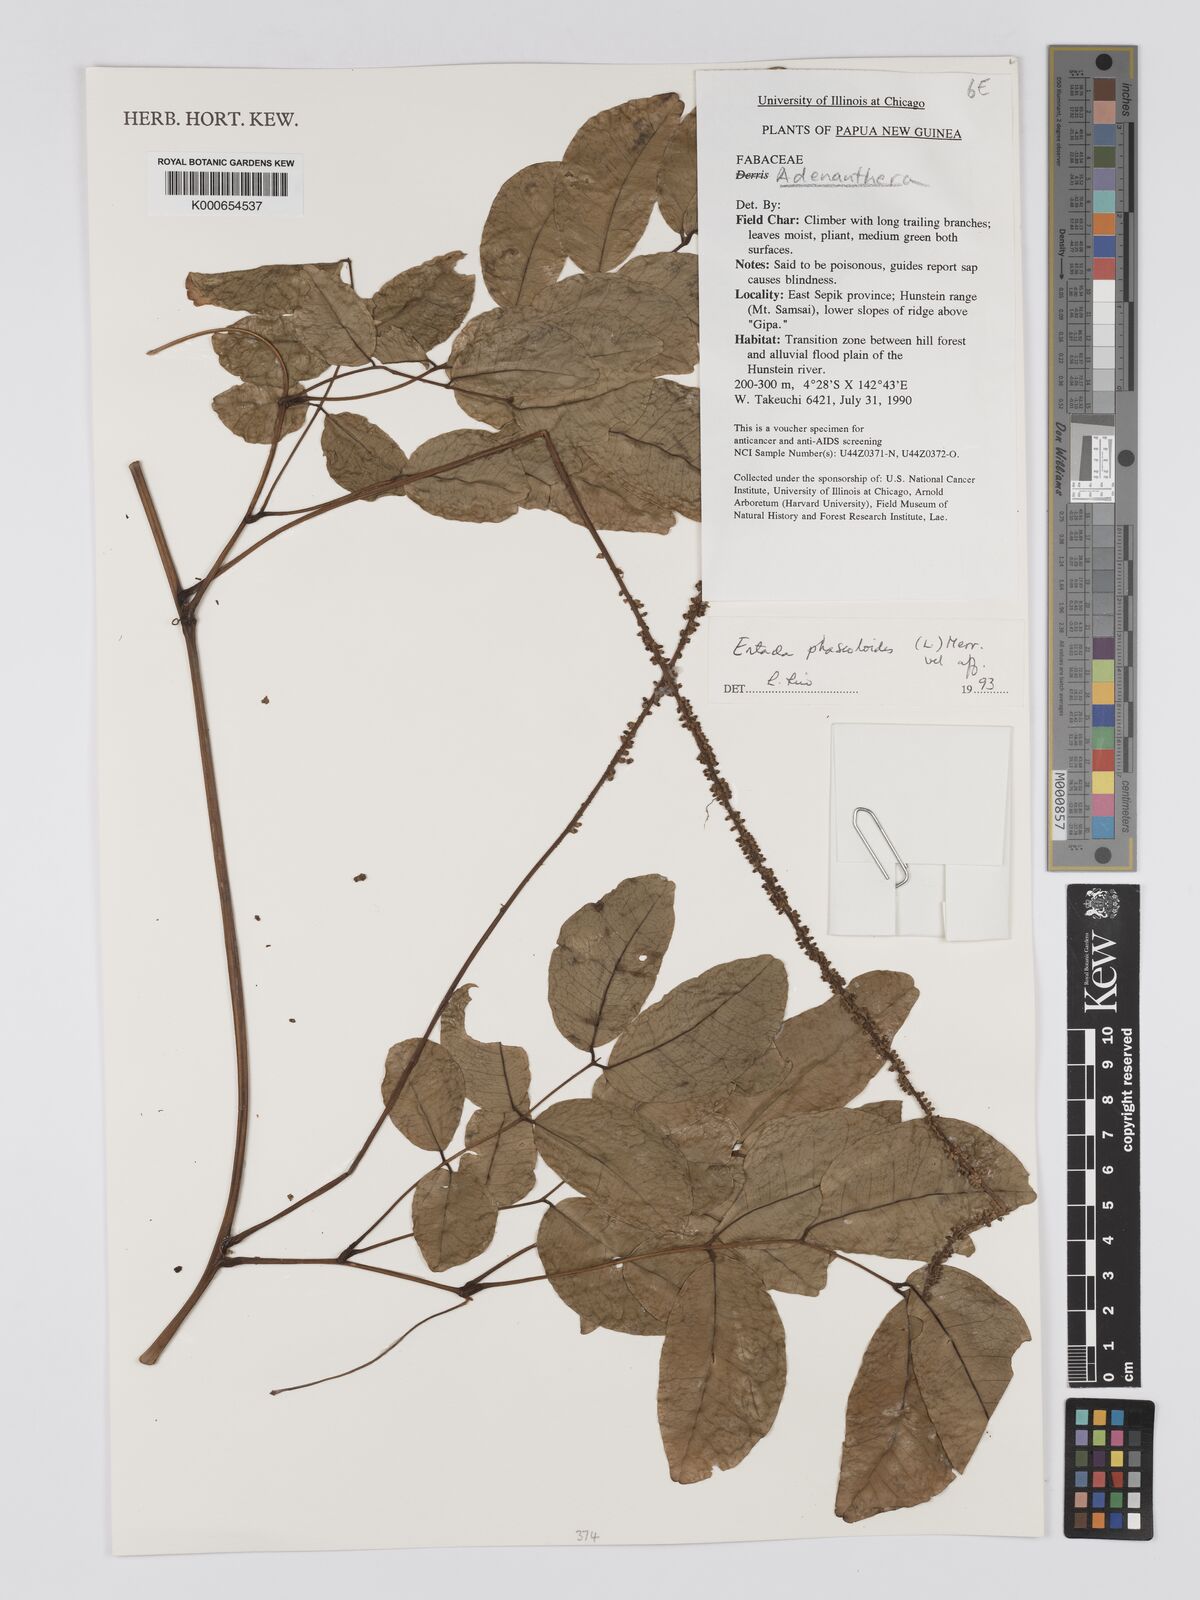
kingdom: Plantae
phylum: Tracheophyta
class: Magnoliopsida
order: Fabales
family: Fabaceae
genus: Entada
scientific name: Entada phaseoloides
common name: Matchbox-bean
